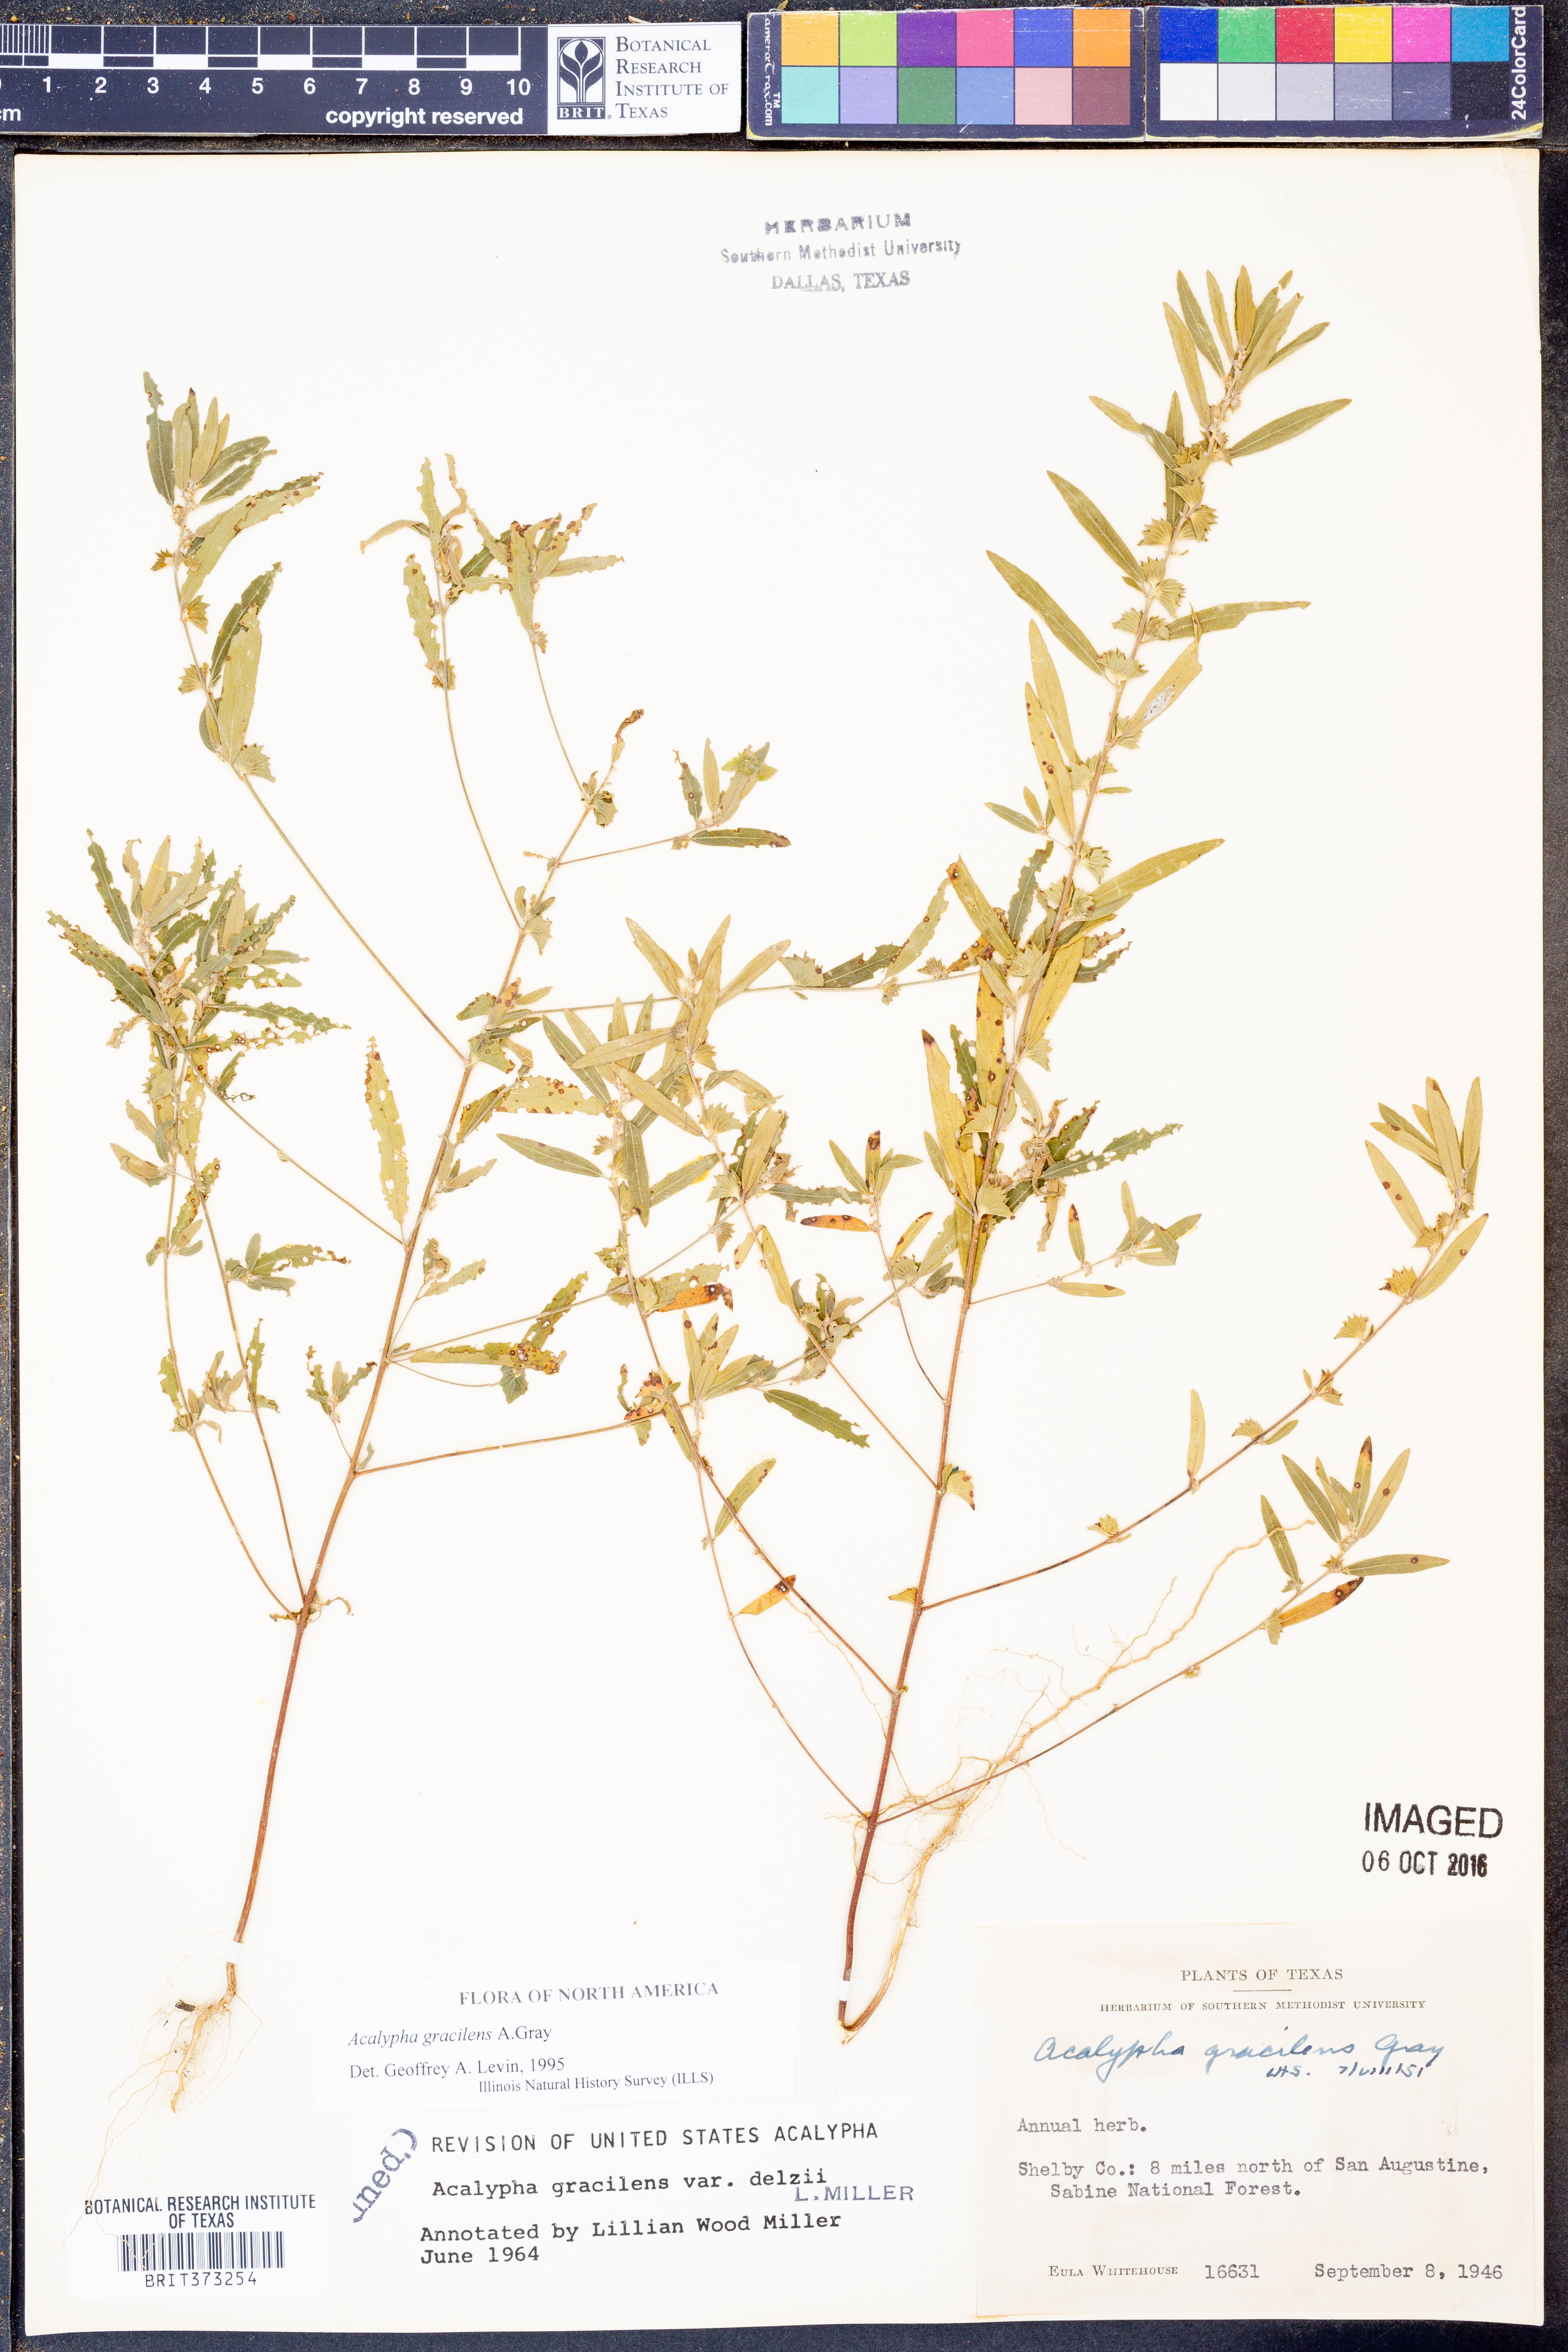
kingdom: Plantae
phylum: Tracheophyta
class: Magnoliopsida
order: Malpighiales
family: Euphorbiaceae
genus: Acalypha
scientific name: Acalypha gracilens
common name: Slender three-seeded mercury
